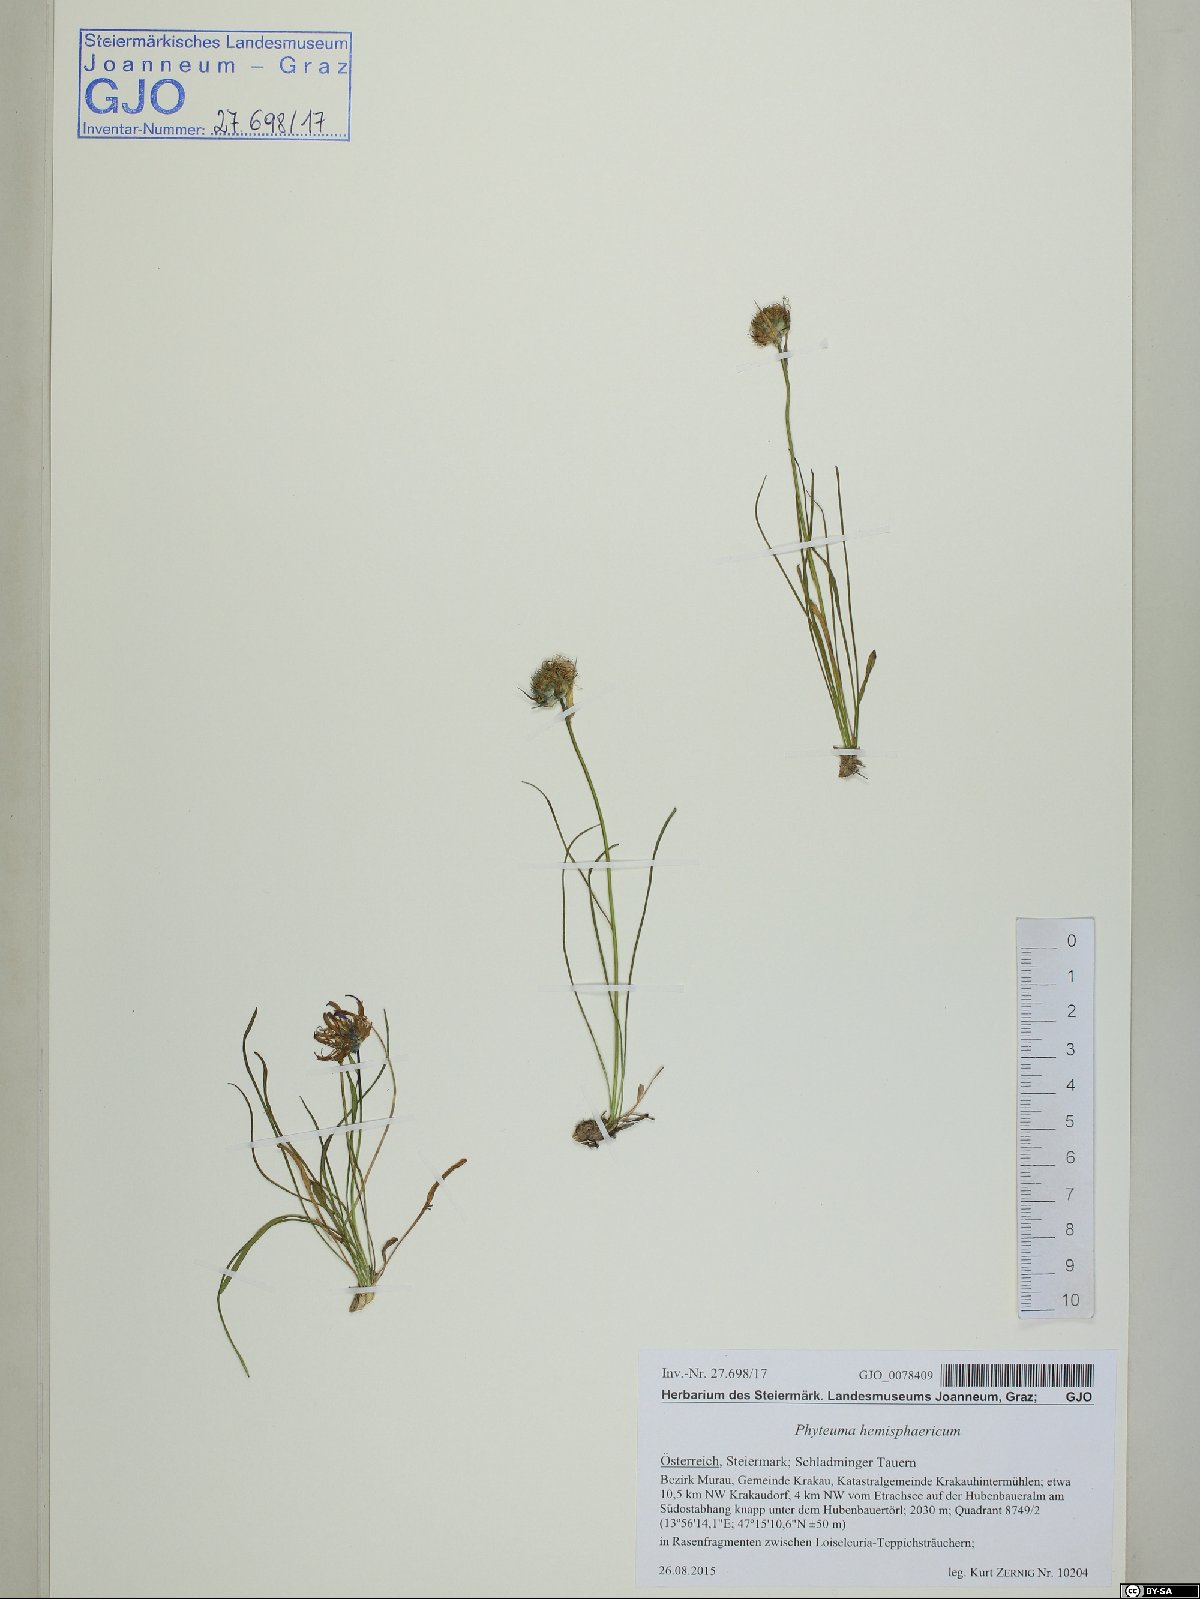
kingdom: Plantae
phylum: Tracheophyta
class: Magnoliopsida
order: Asterales
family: Campanulaceae
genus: Phyteuma
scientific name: Phyteuma hemisphaericum
